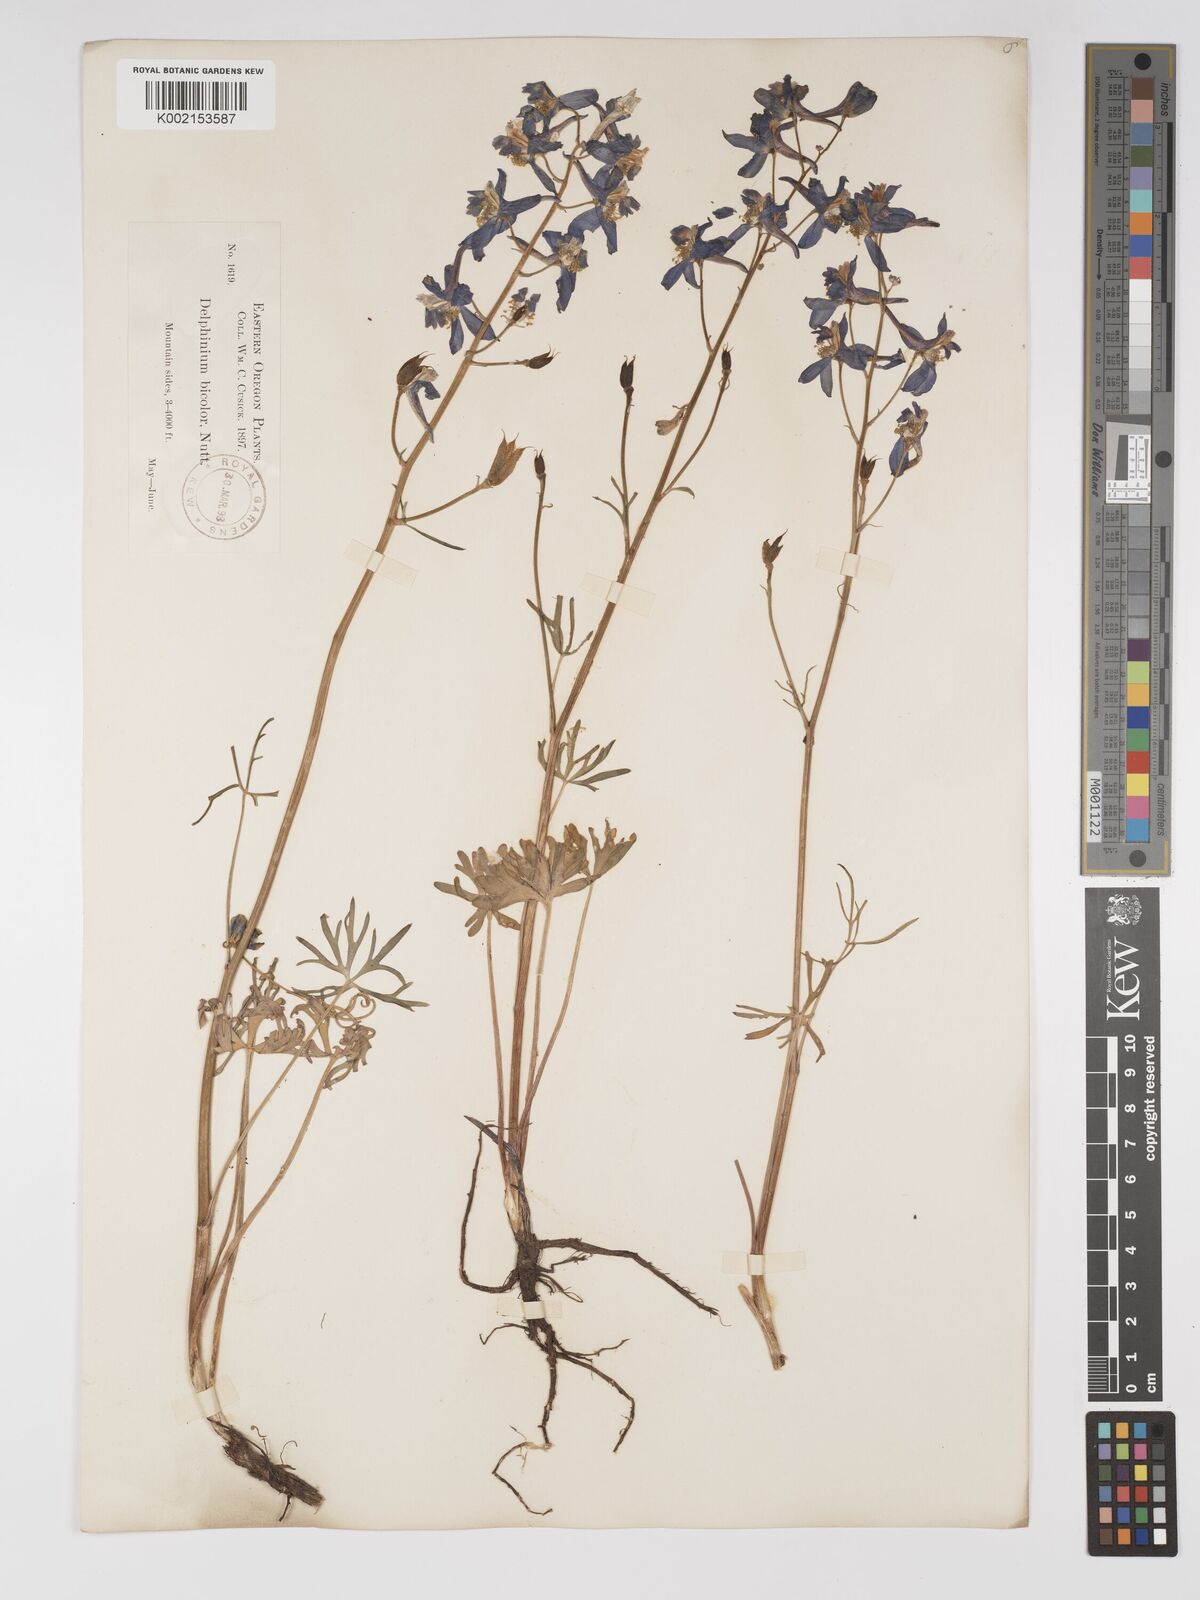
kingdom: Plantae
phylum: Tracheophyta
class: Magnoliopsida
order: Ranunculales
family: Ranunculaceae
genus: Delphinium
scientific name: Delphinium bicolor
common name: Low larkspur
